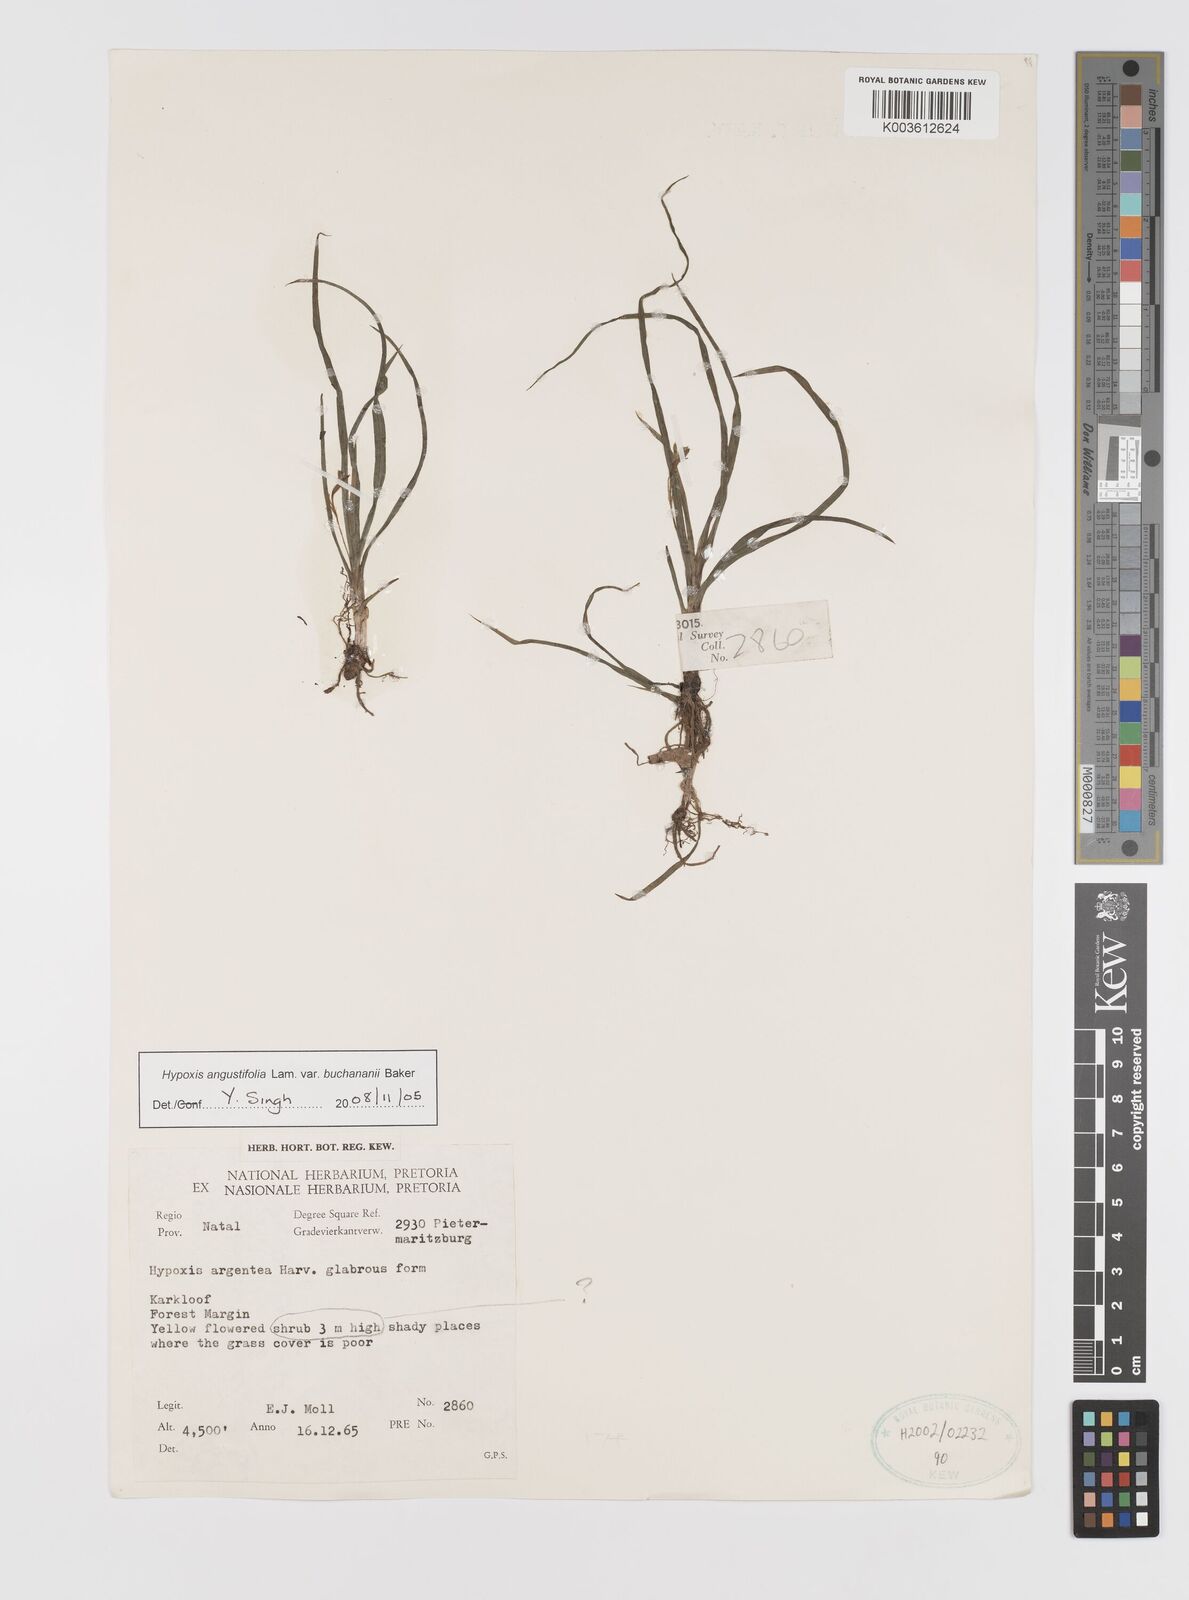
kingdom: Plantae
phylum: Tracheophyta
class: Liliopsida
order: Asparagales
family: Hypoxidaceae
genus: Hypoxis
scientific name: Hypoxis angustifolia
